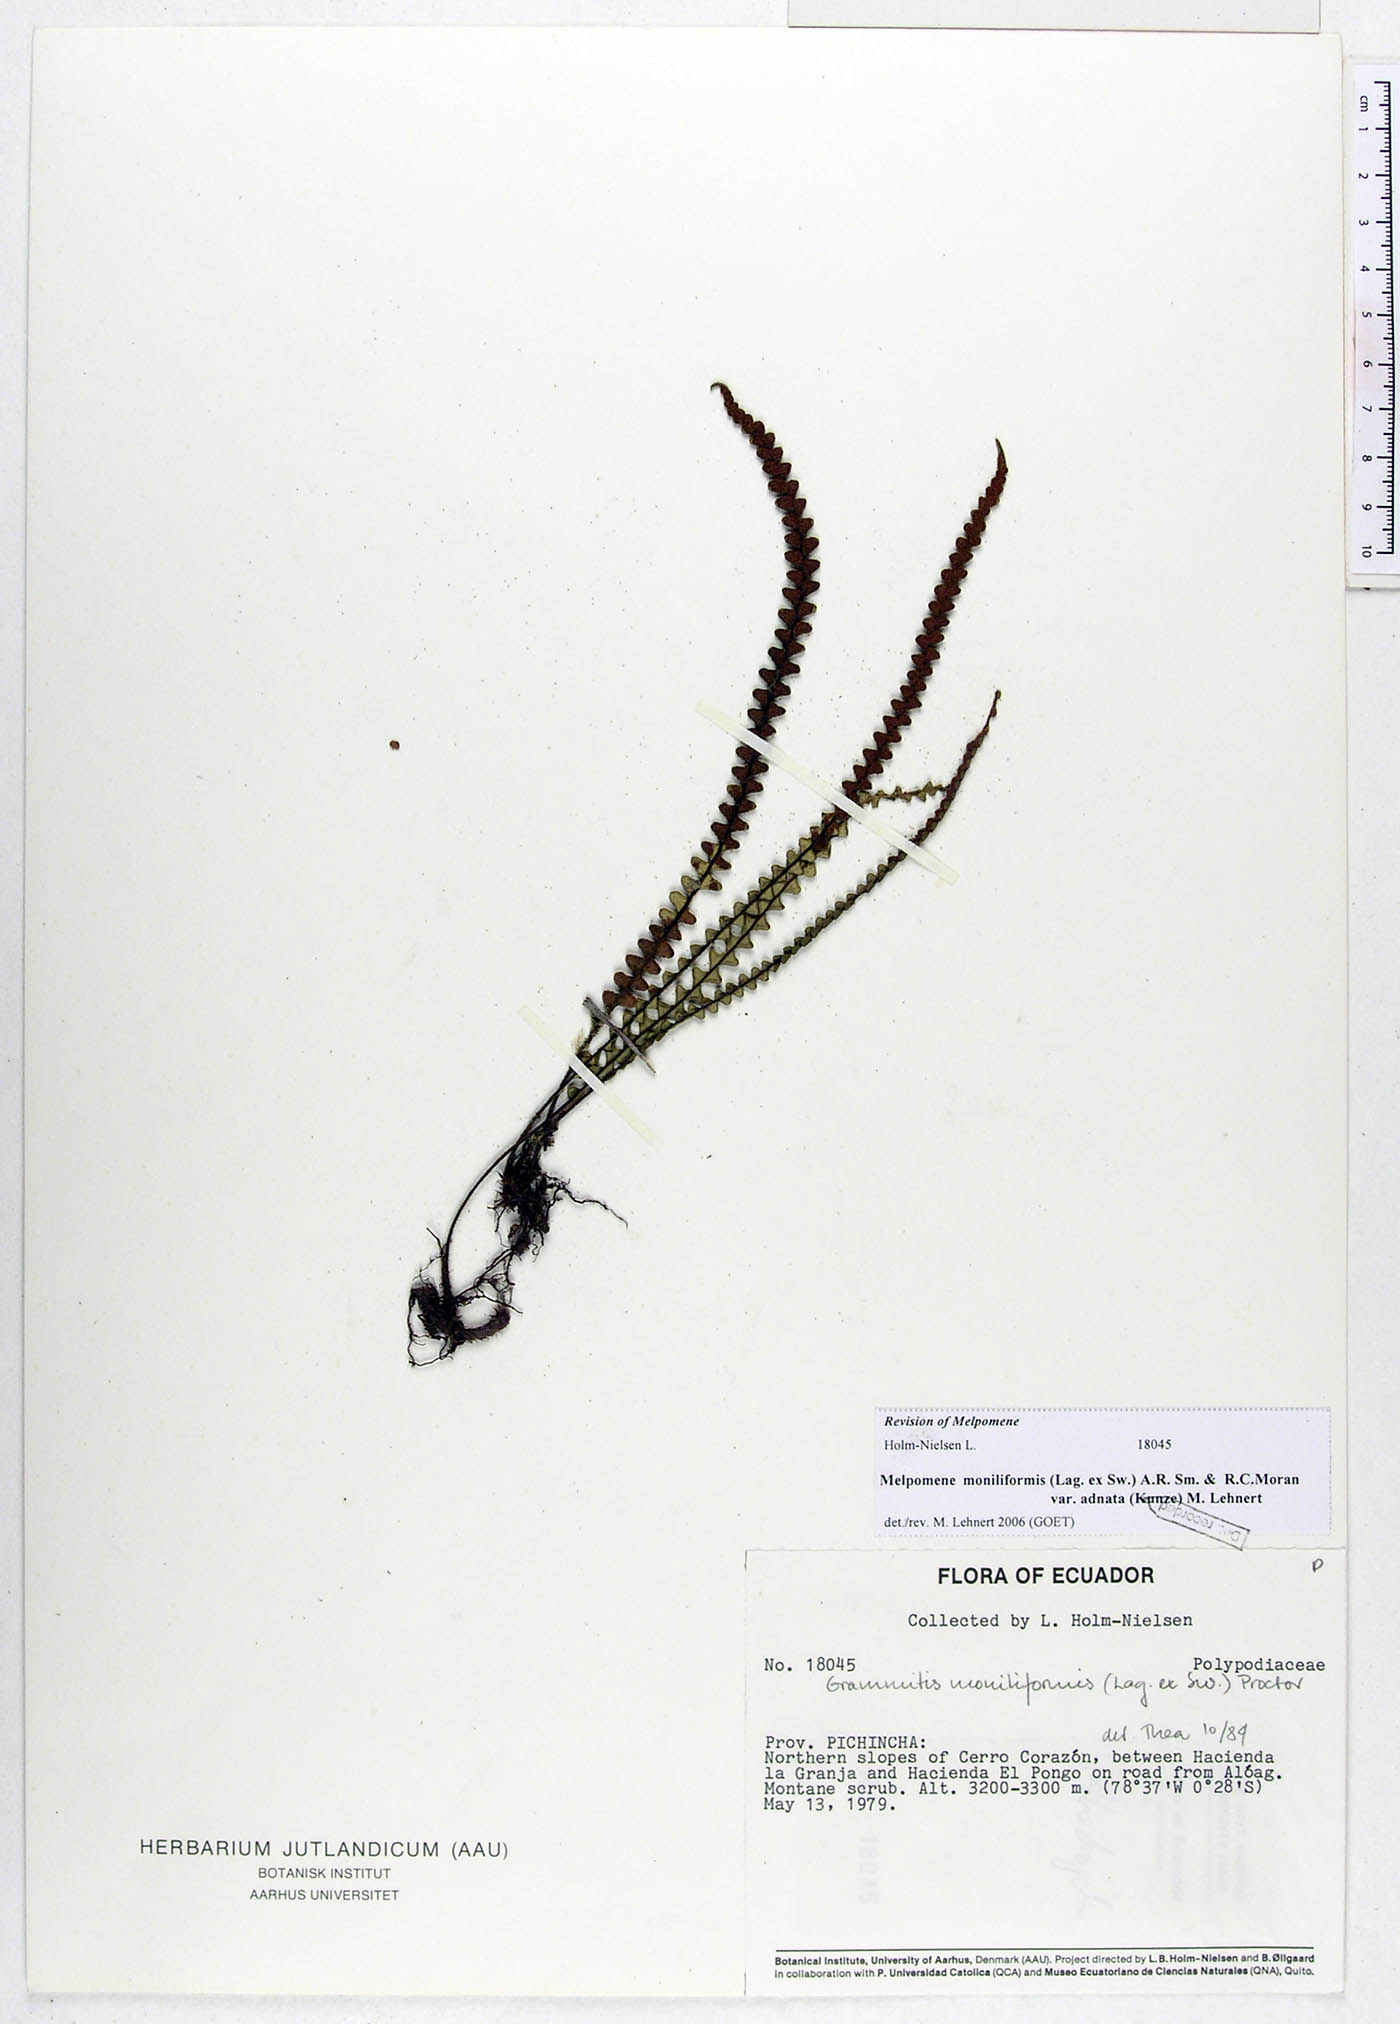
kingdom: Plantae
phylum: Tracheophyta
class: Polypodiopsida
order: Polypodiales
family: Polypodiaceae
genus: Melpomene
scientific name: Melpomene moniliformis
